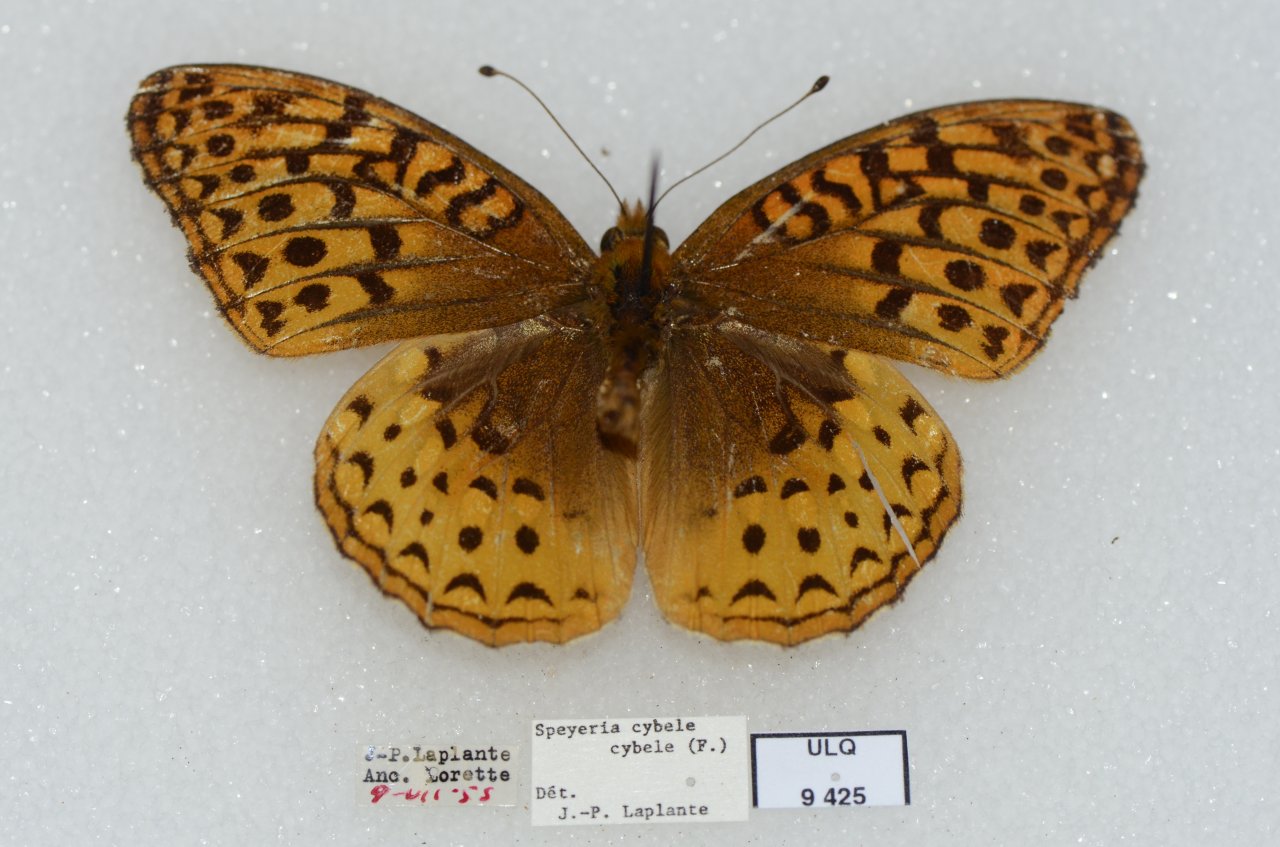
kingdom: Animalia
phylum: Arthropoda
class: Insecta
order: Lepidoptera
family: Nymphalidae
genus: Speyeria
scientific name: Speyeria cybele
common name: Great Spangled Fritillary
